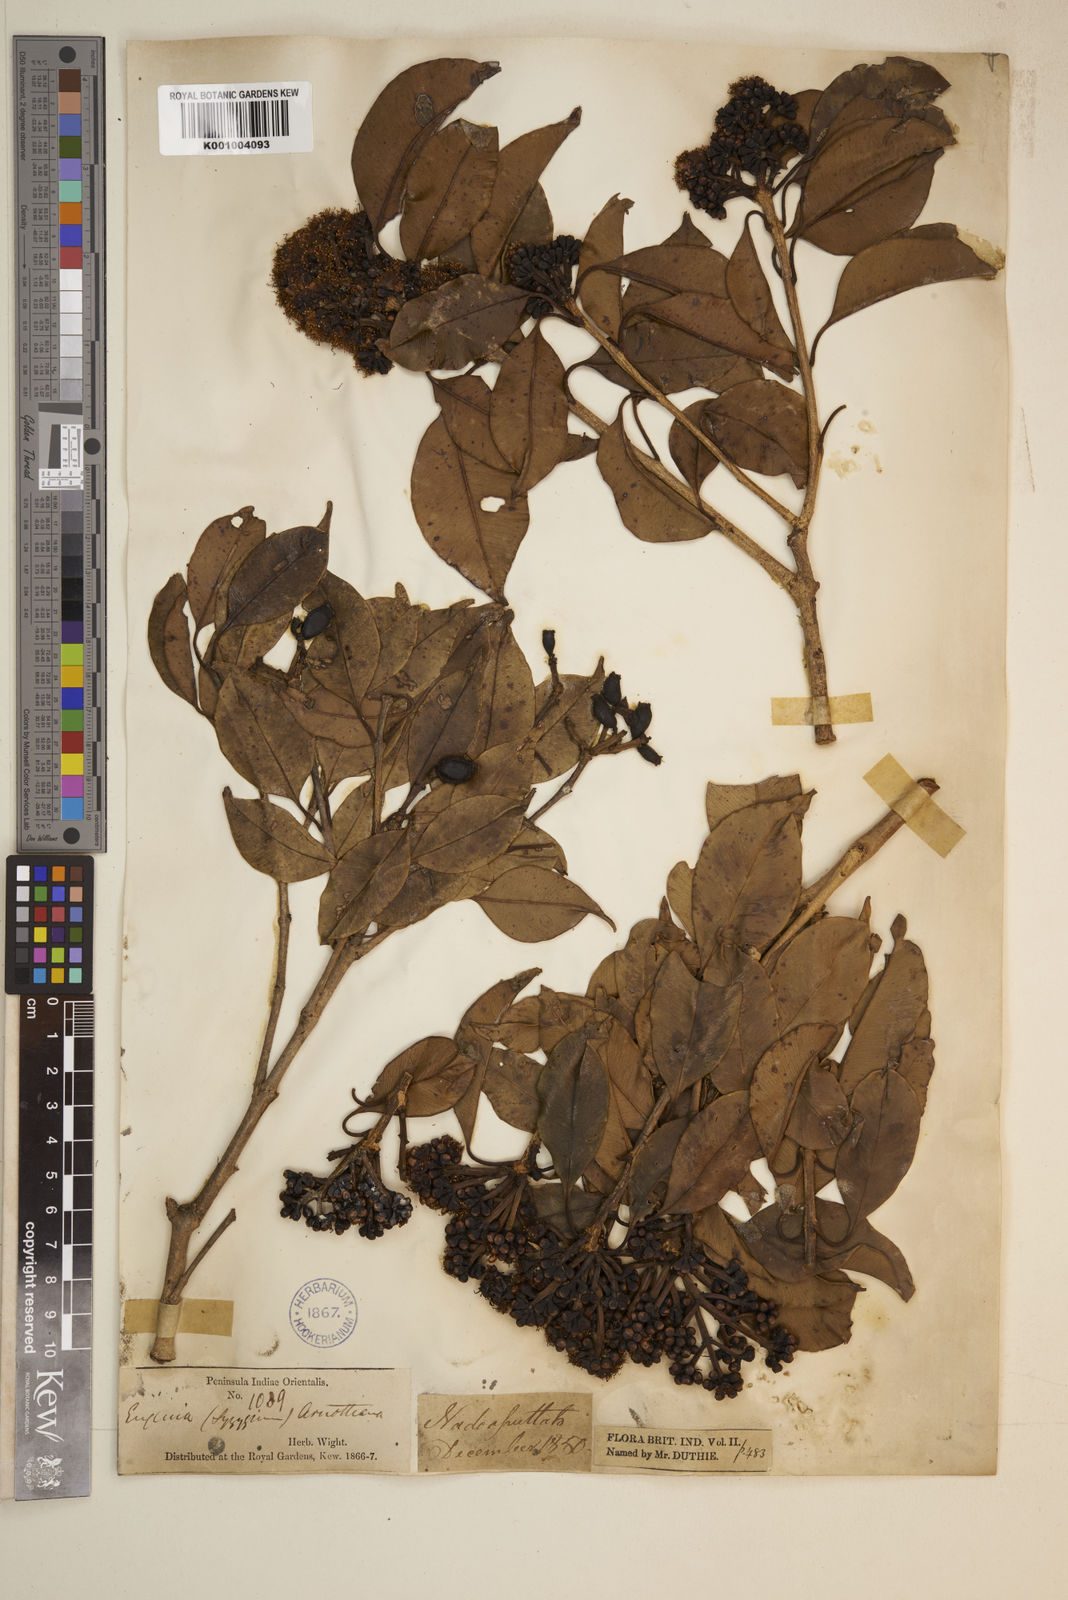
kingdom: Plantae
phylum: Tracheophyta
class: Magnoliopsida
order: Myrtales
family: Myrtaceae
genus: Syzygium
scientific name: Syzygium densiflorum
